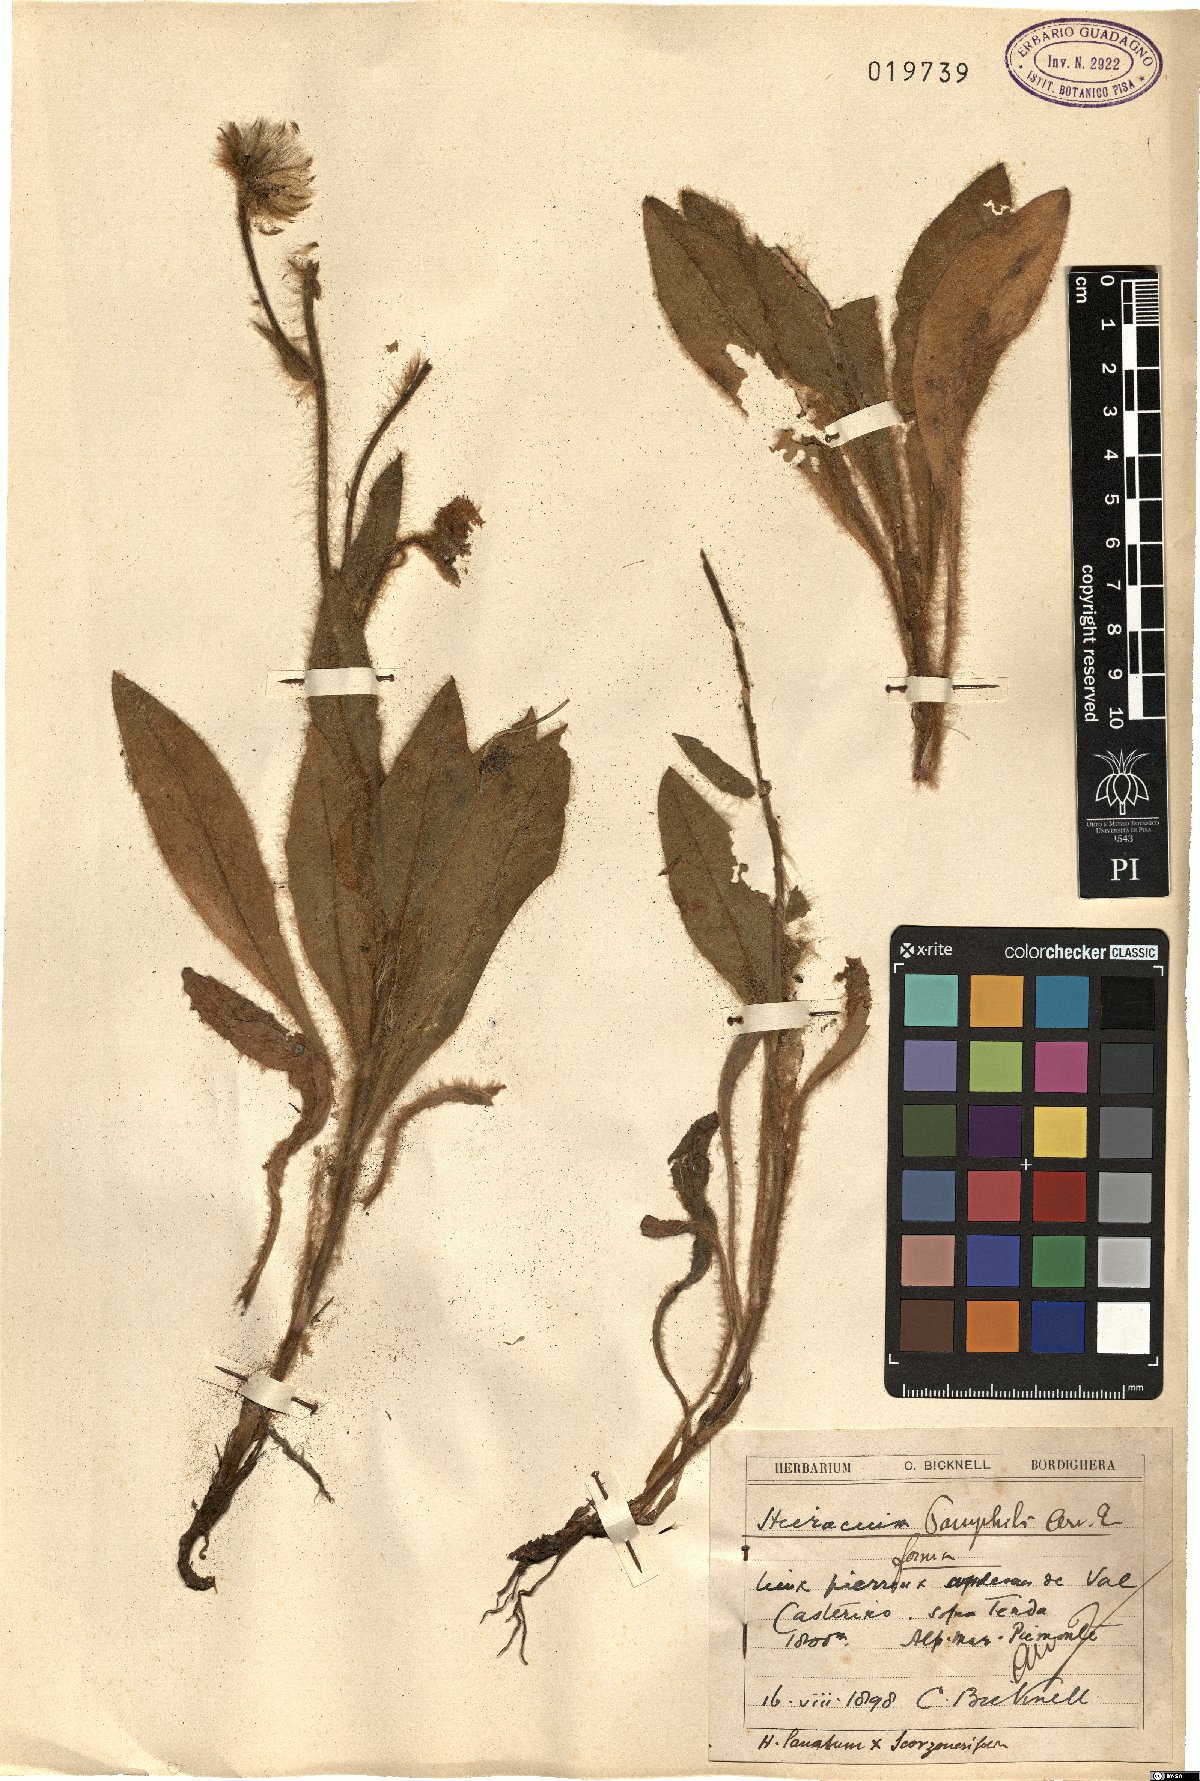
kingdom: Plantae
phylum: Tracheophyta
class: Magnoliopsida
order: Asterales
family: Asteraceae
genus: Hieracium
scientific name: Hieracium pamphilii
